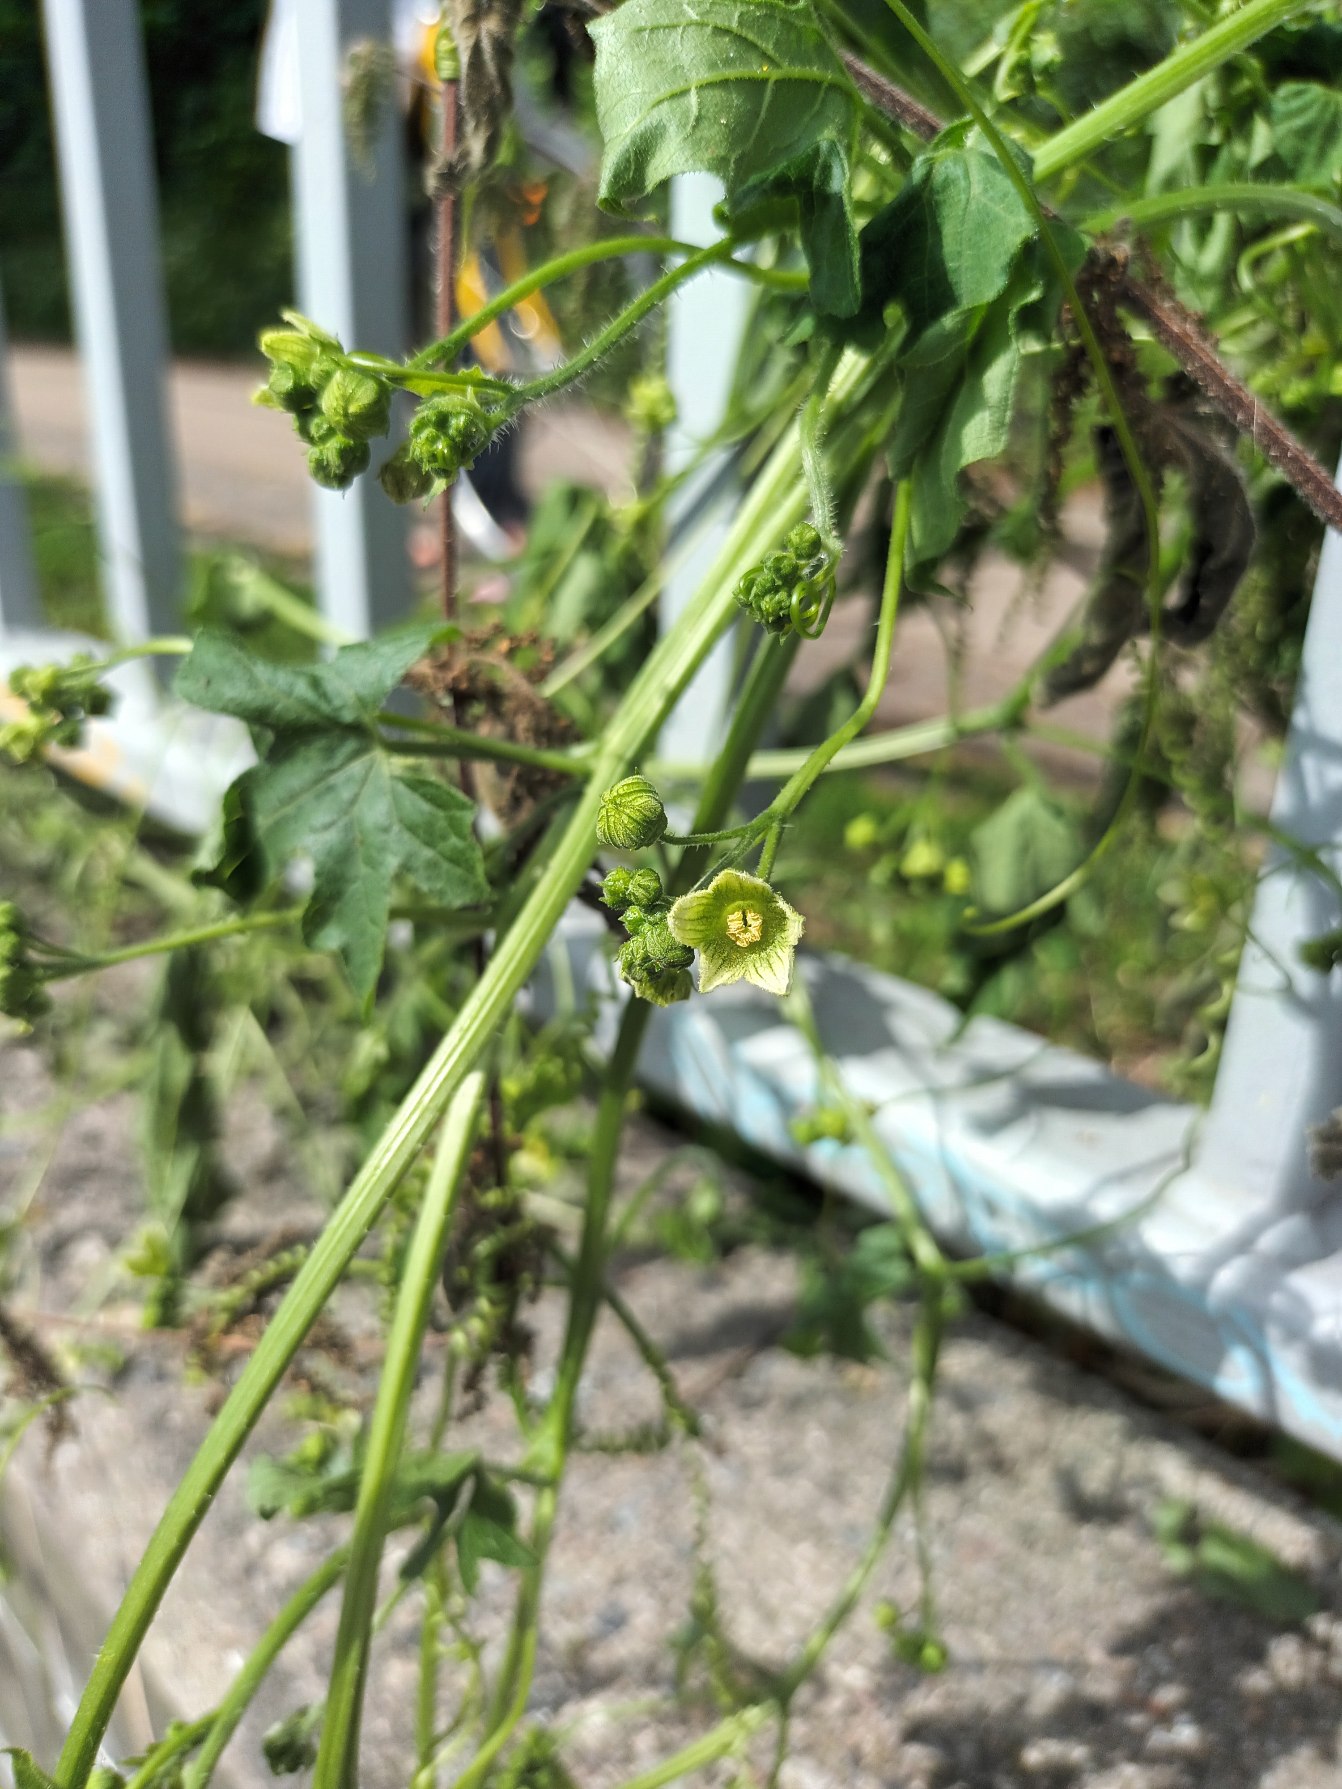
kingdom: Plantae
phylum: Tracheophyta
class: Magnoliopsida
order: Cucurbitales
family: Cucurbitaceae
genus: Bryonia
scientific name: Bryonia dioica
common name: Tvebo galdebær
